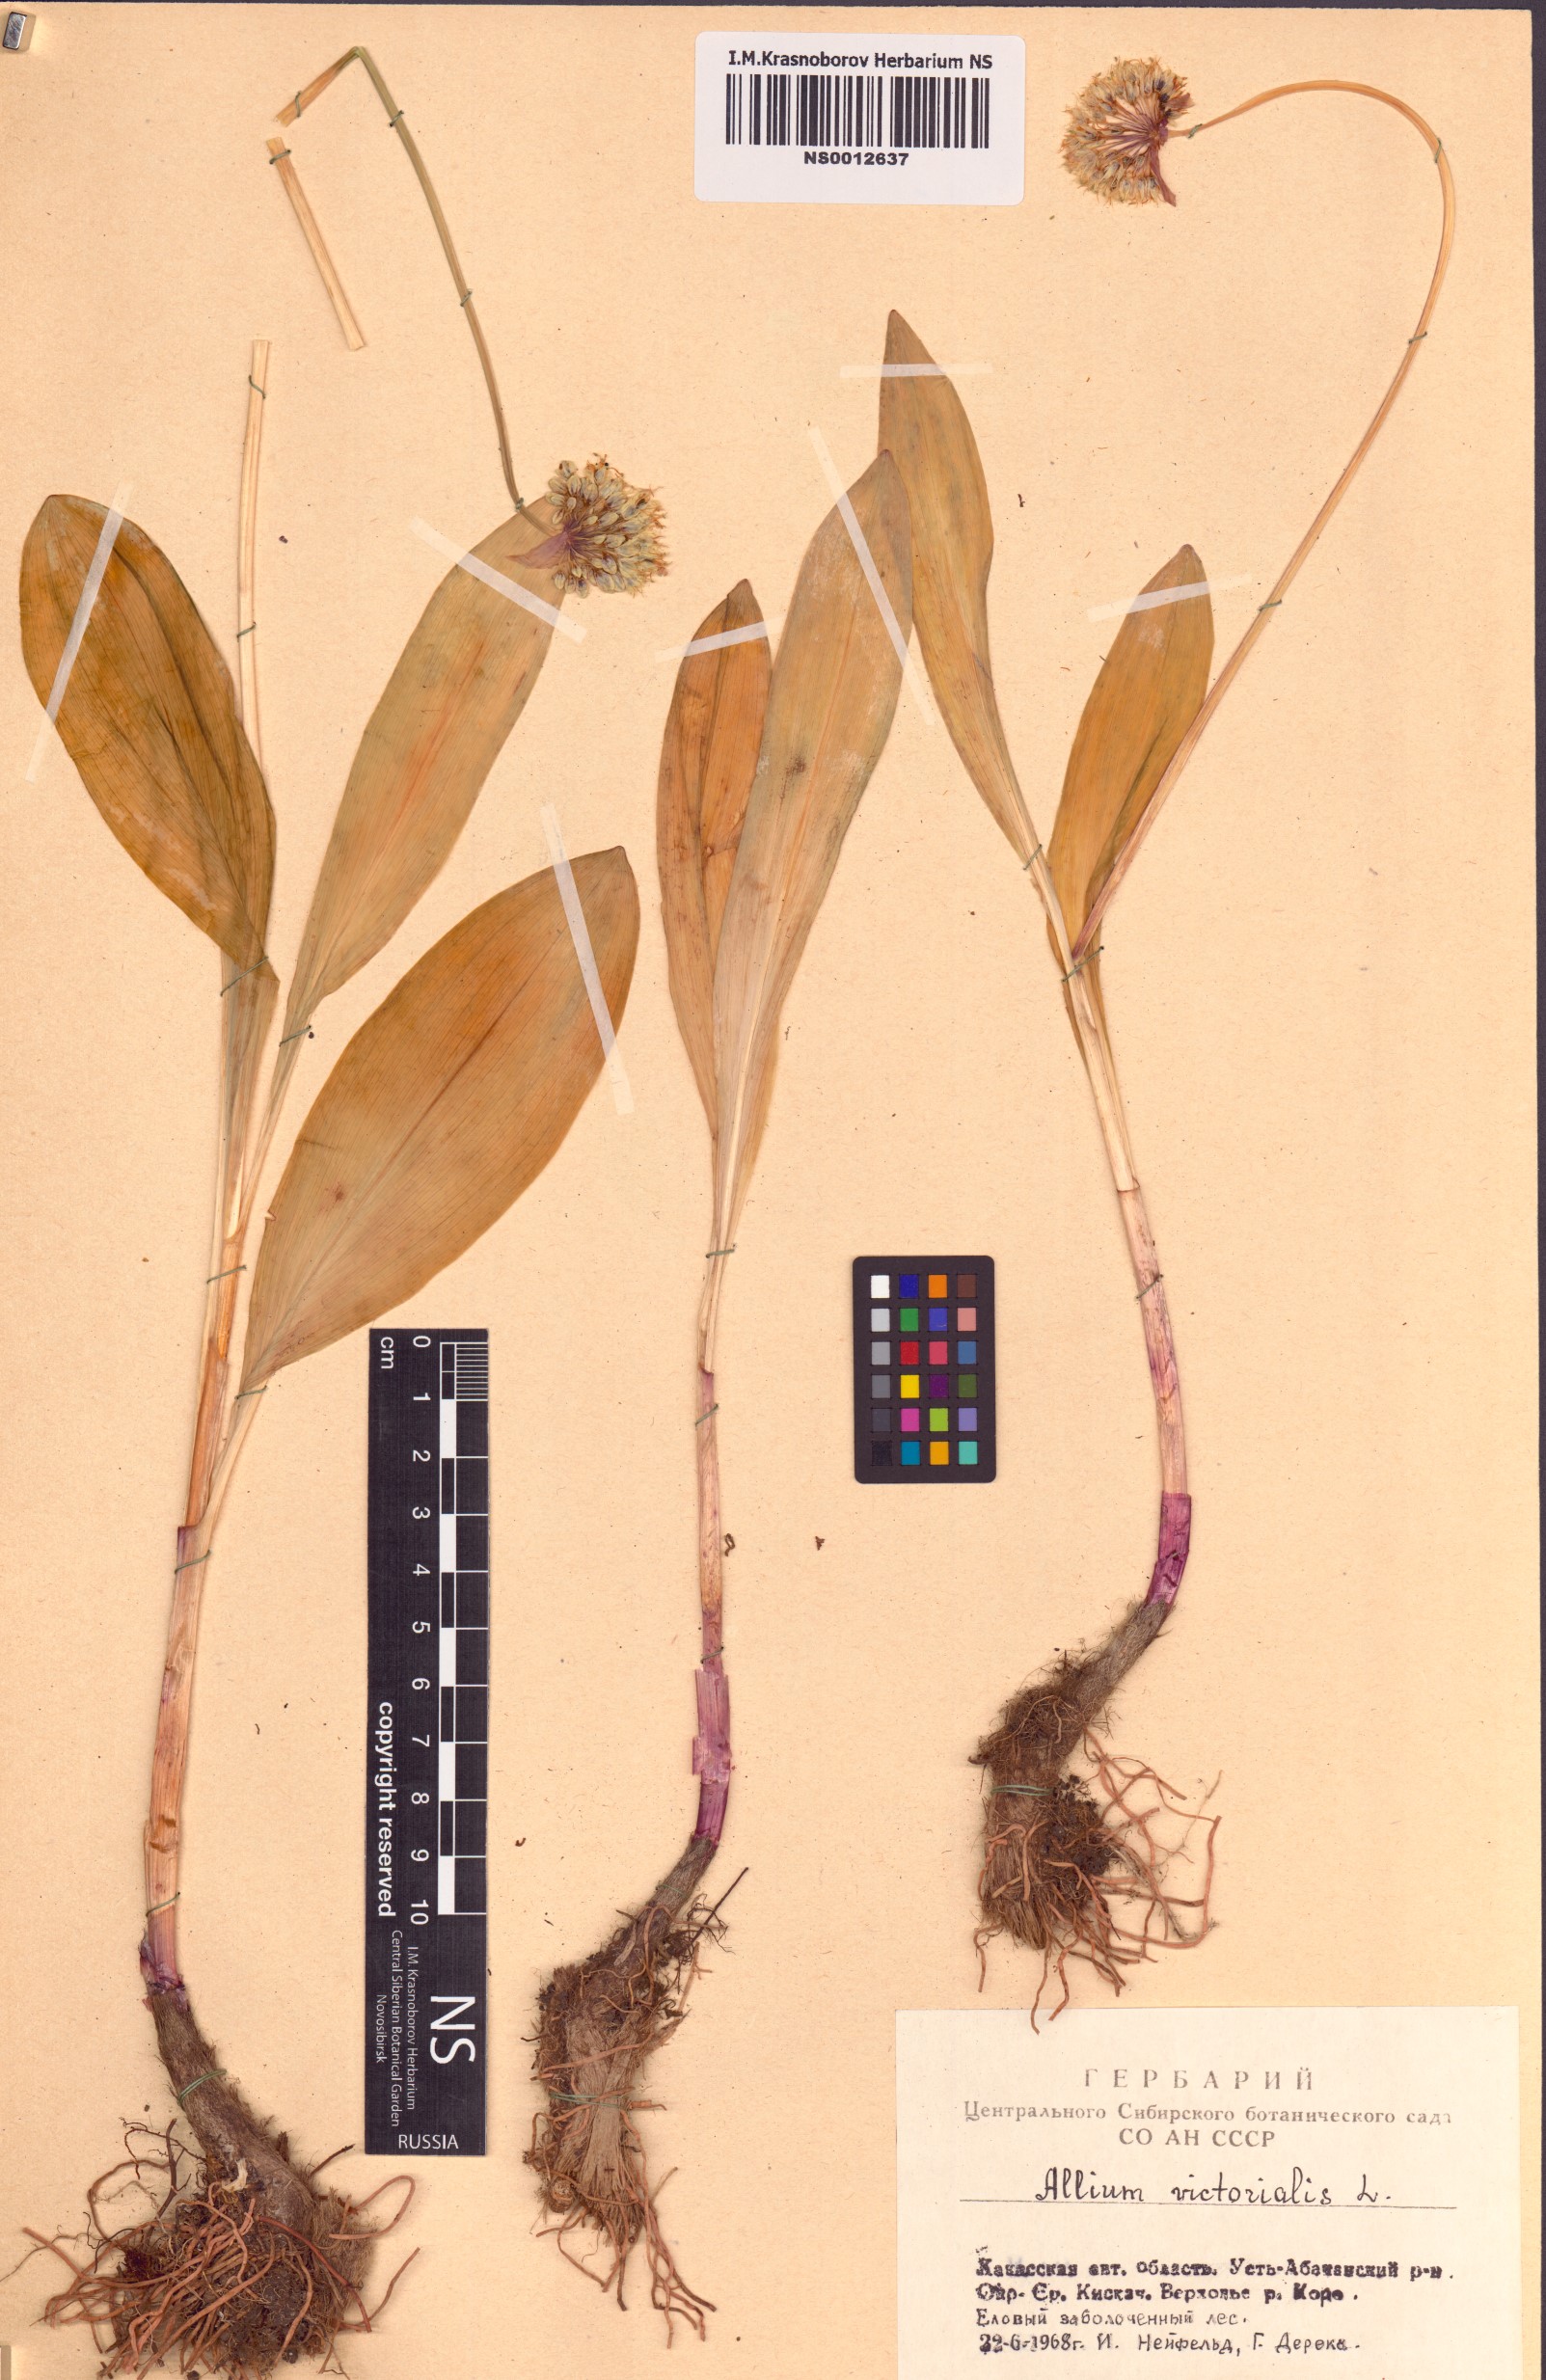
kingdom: Plantae
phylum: Tracheophyta
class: Liliopsida
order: Asparagales
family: Amaryllidaceae
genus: Allium
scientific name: Allium microdictyon
